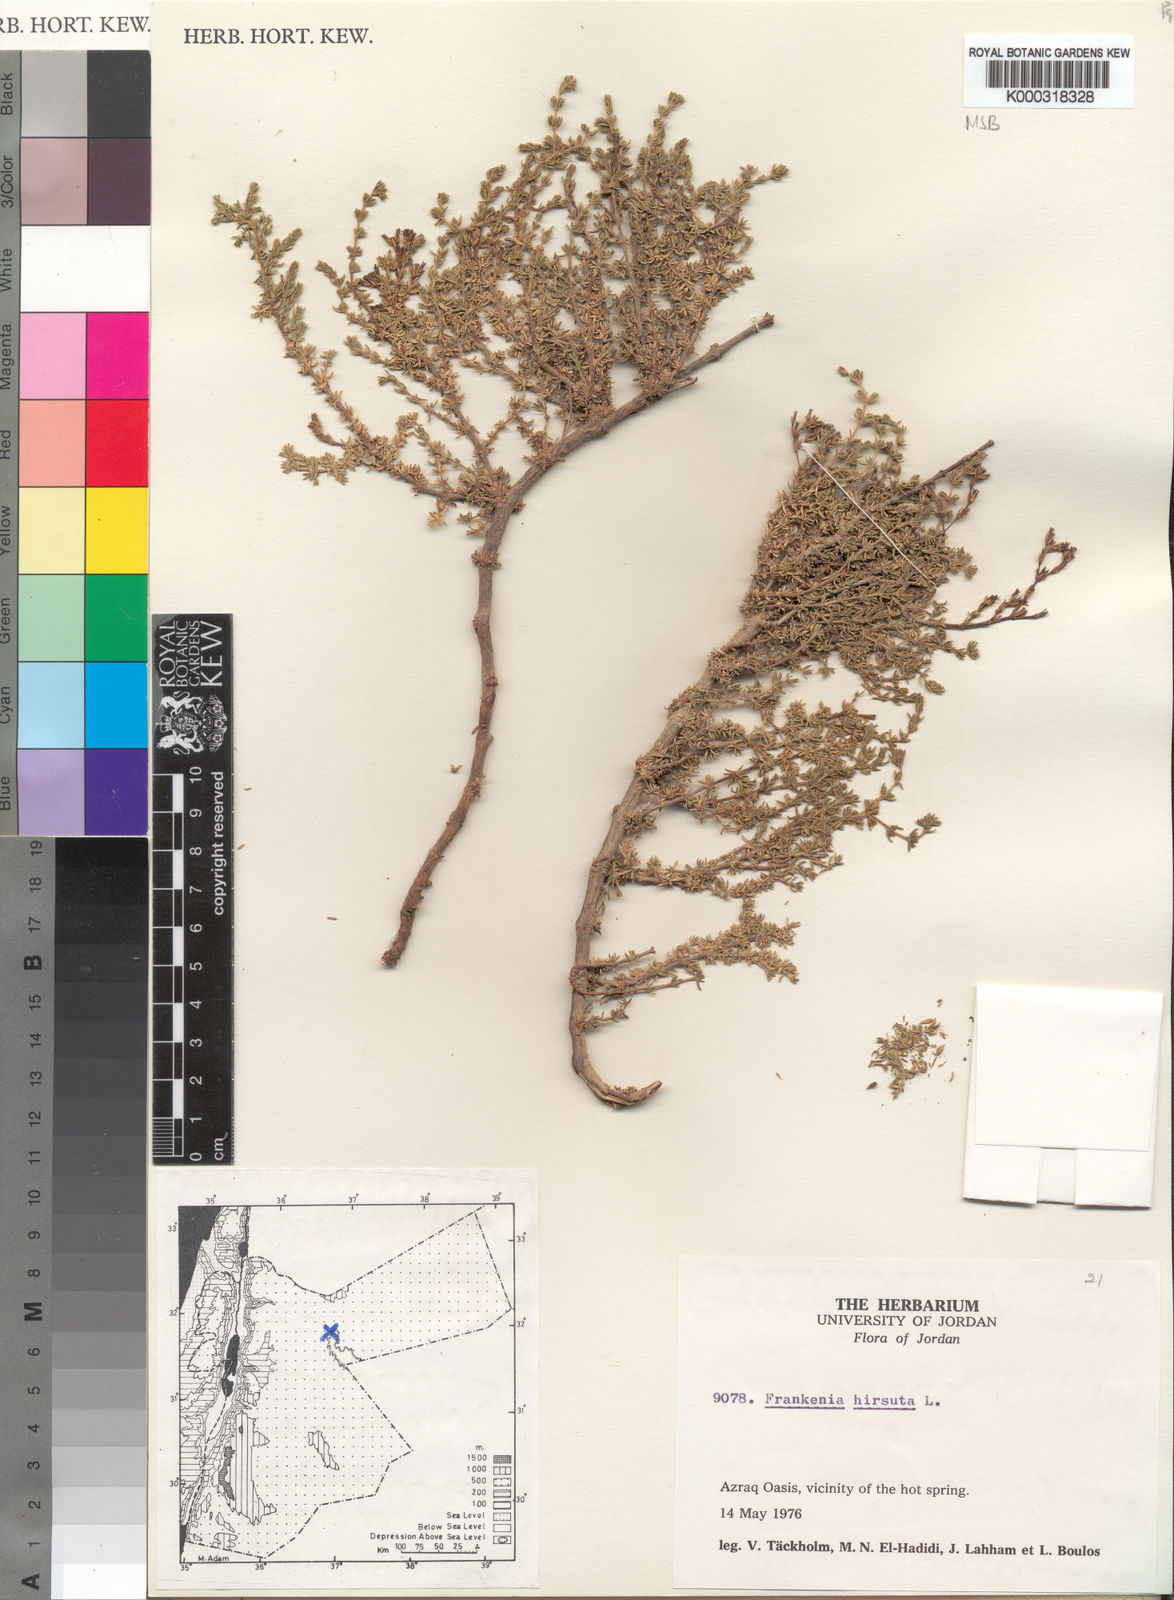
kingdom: Plantae
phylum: Tracheophyta
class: Magnoliopsida
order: Caryophyllales
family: Frankeniaceae
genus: Frankenia
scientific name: Frankenia hirsuta
